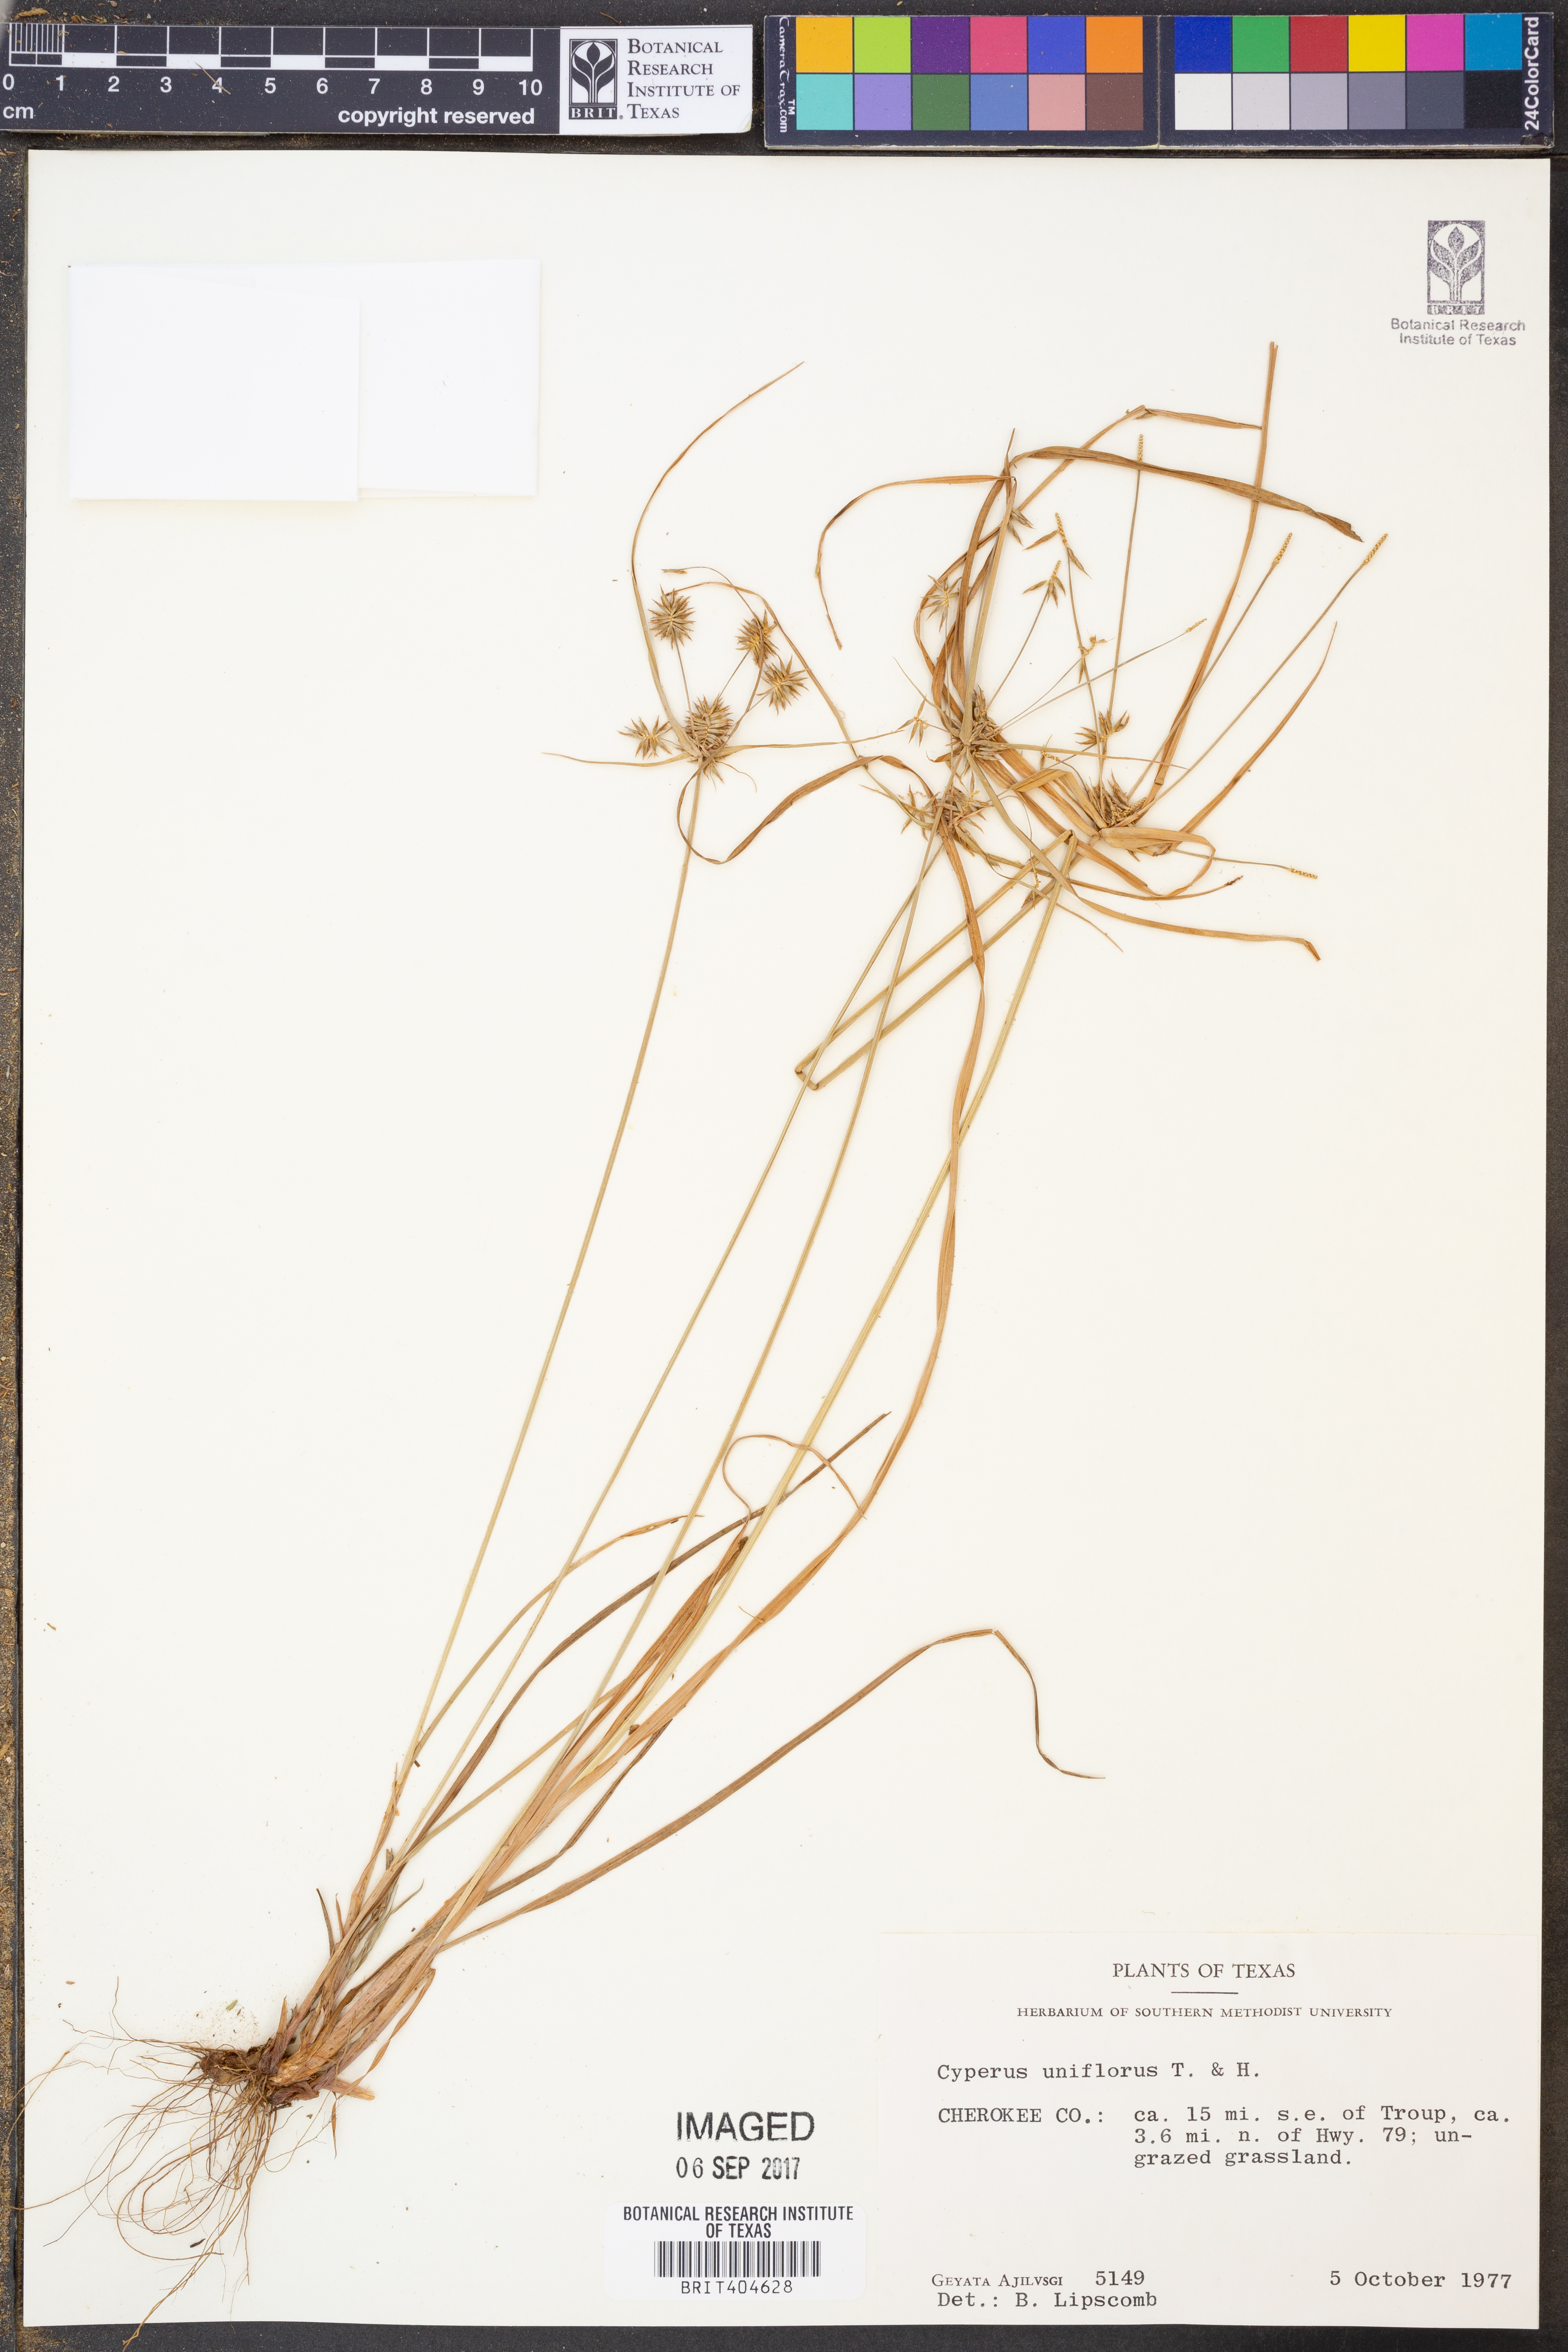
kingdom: Plantae
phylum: Tracheophyta
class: Liliopsida
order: Poales
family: Cyperaceae
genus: Cyperus
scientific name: Cyperus retroflexus
